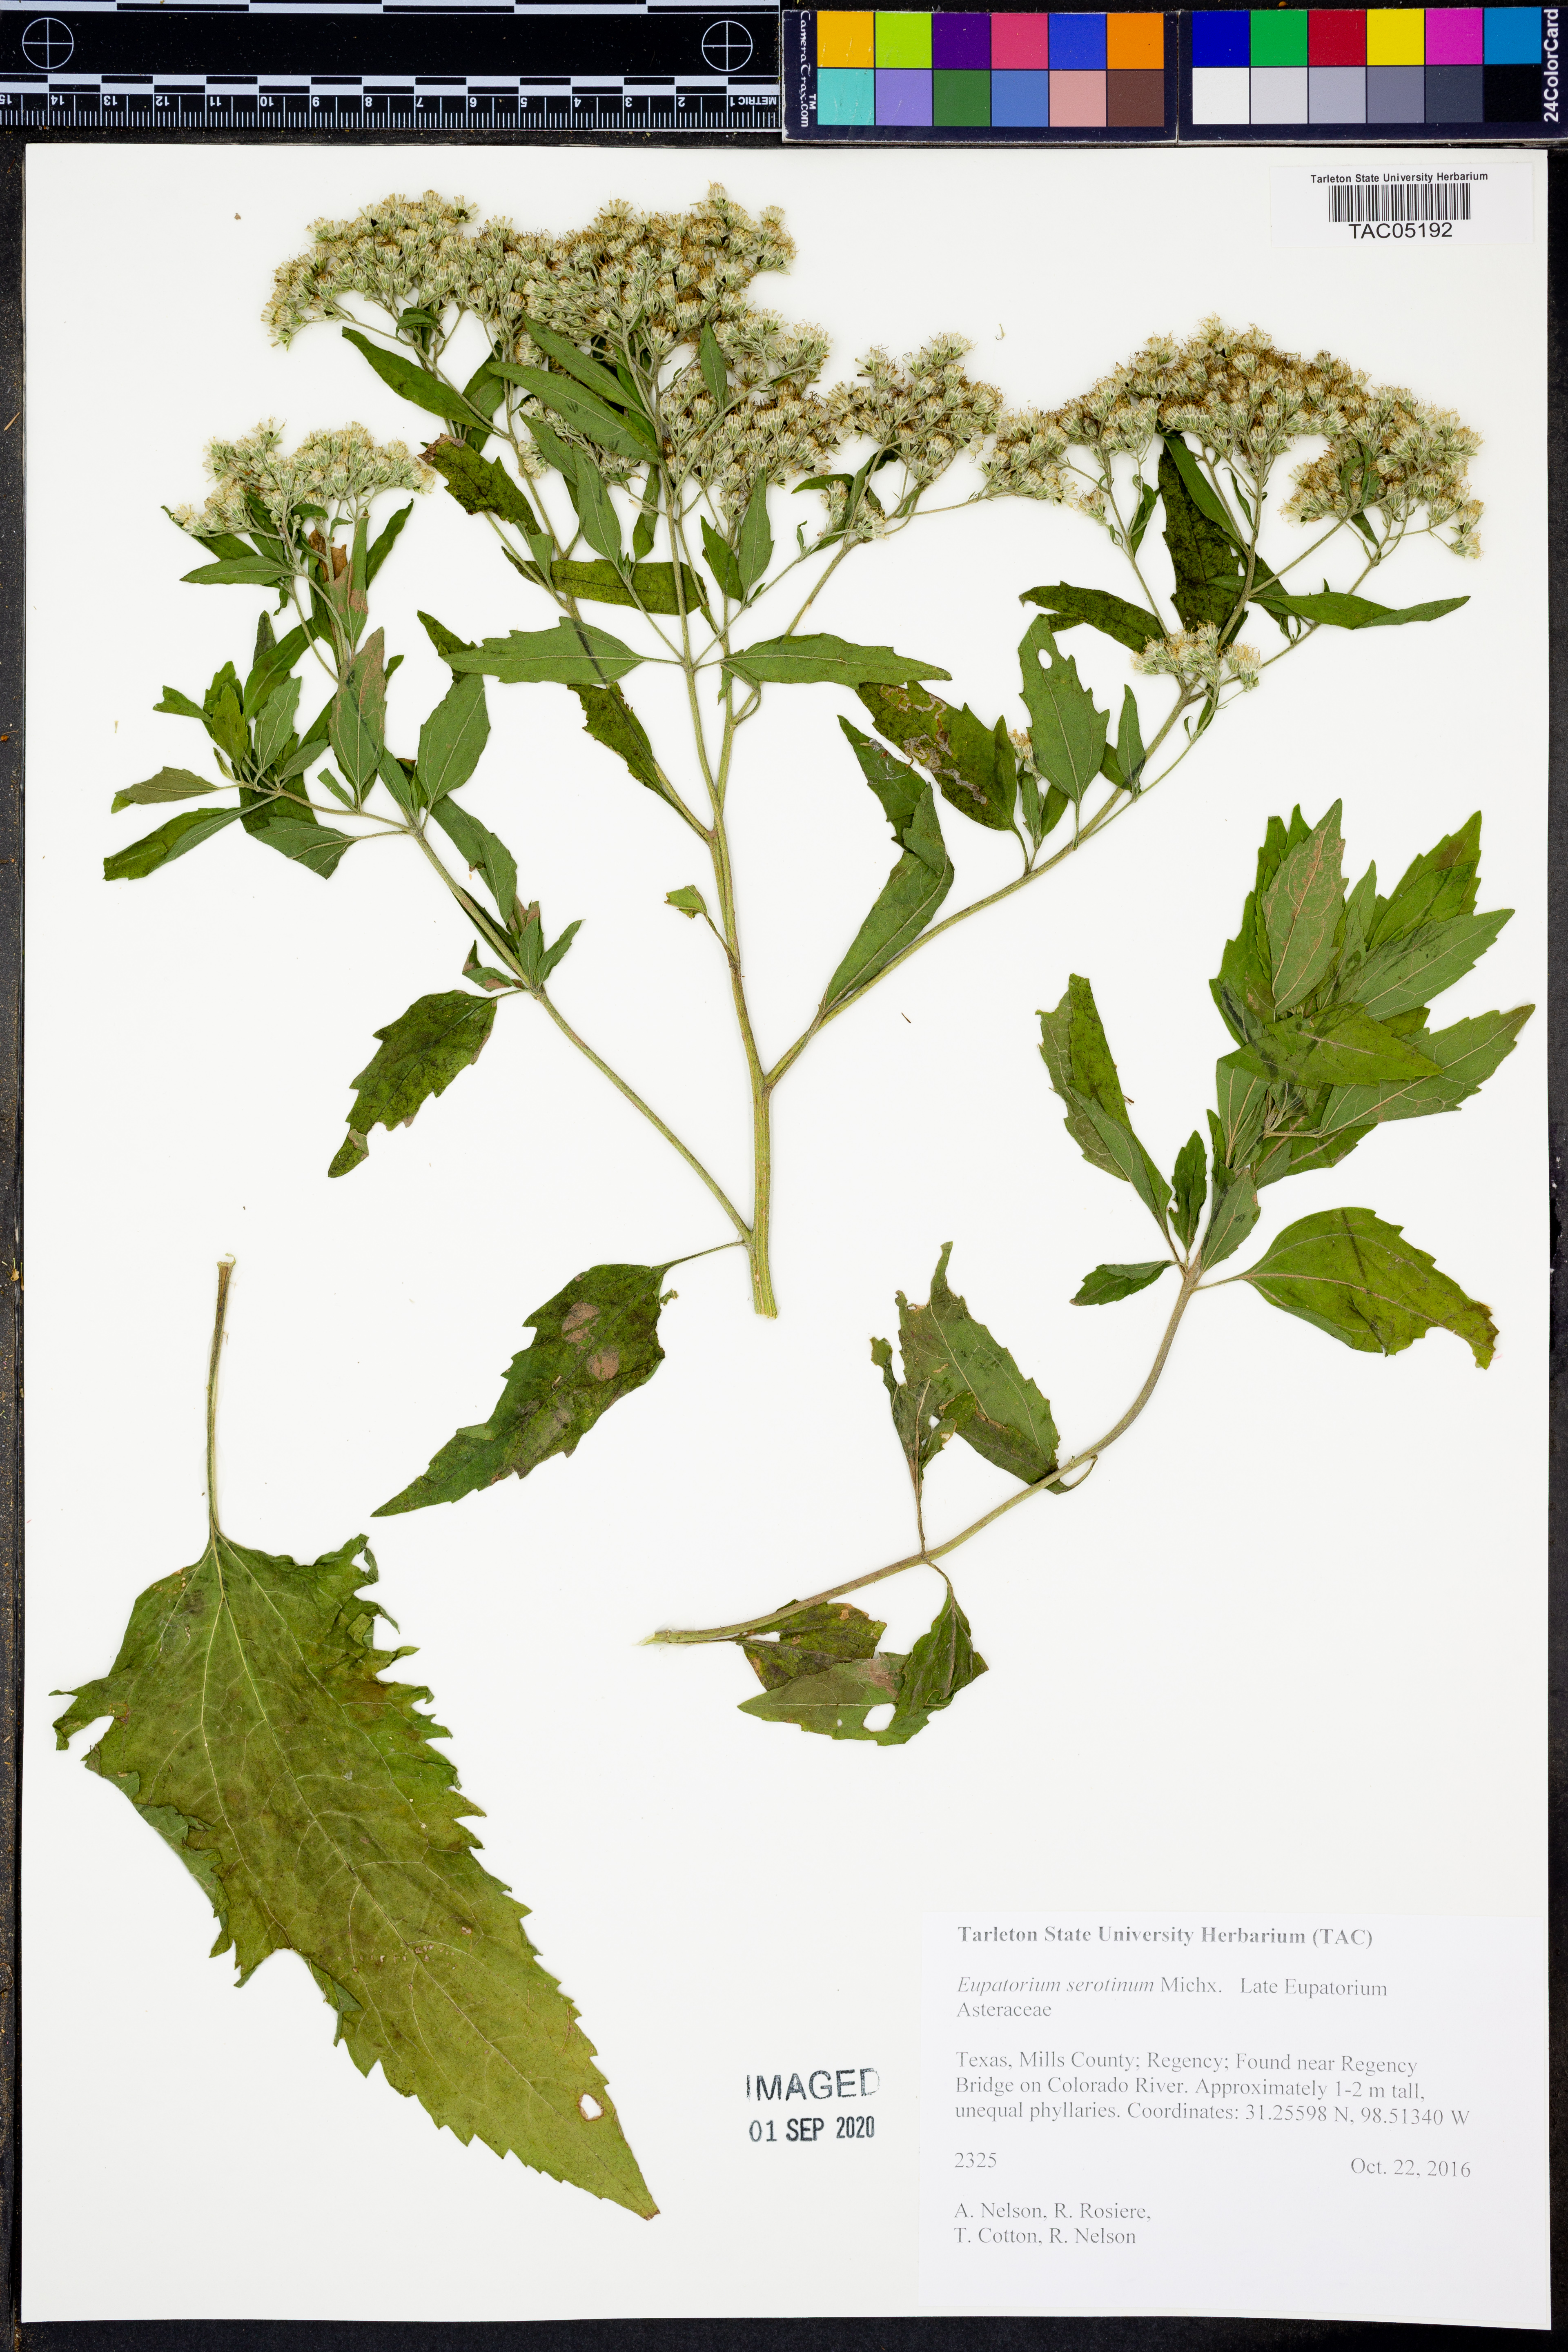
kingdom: Plantae
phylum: Tracheophyta
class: Magnoliopsida
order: Asterales
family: Asteraceae
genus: Eupatorium
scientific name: Eupatorium serotinum
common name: Late boneset
